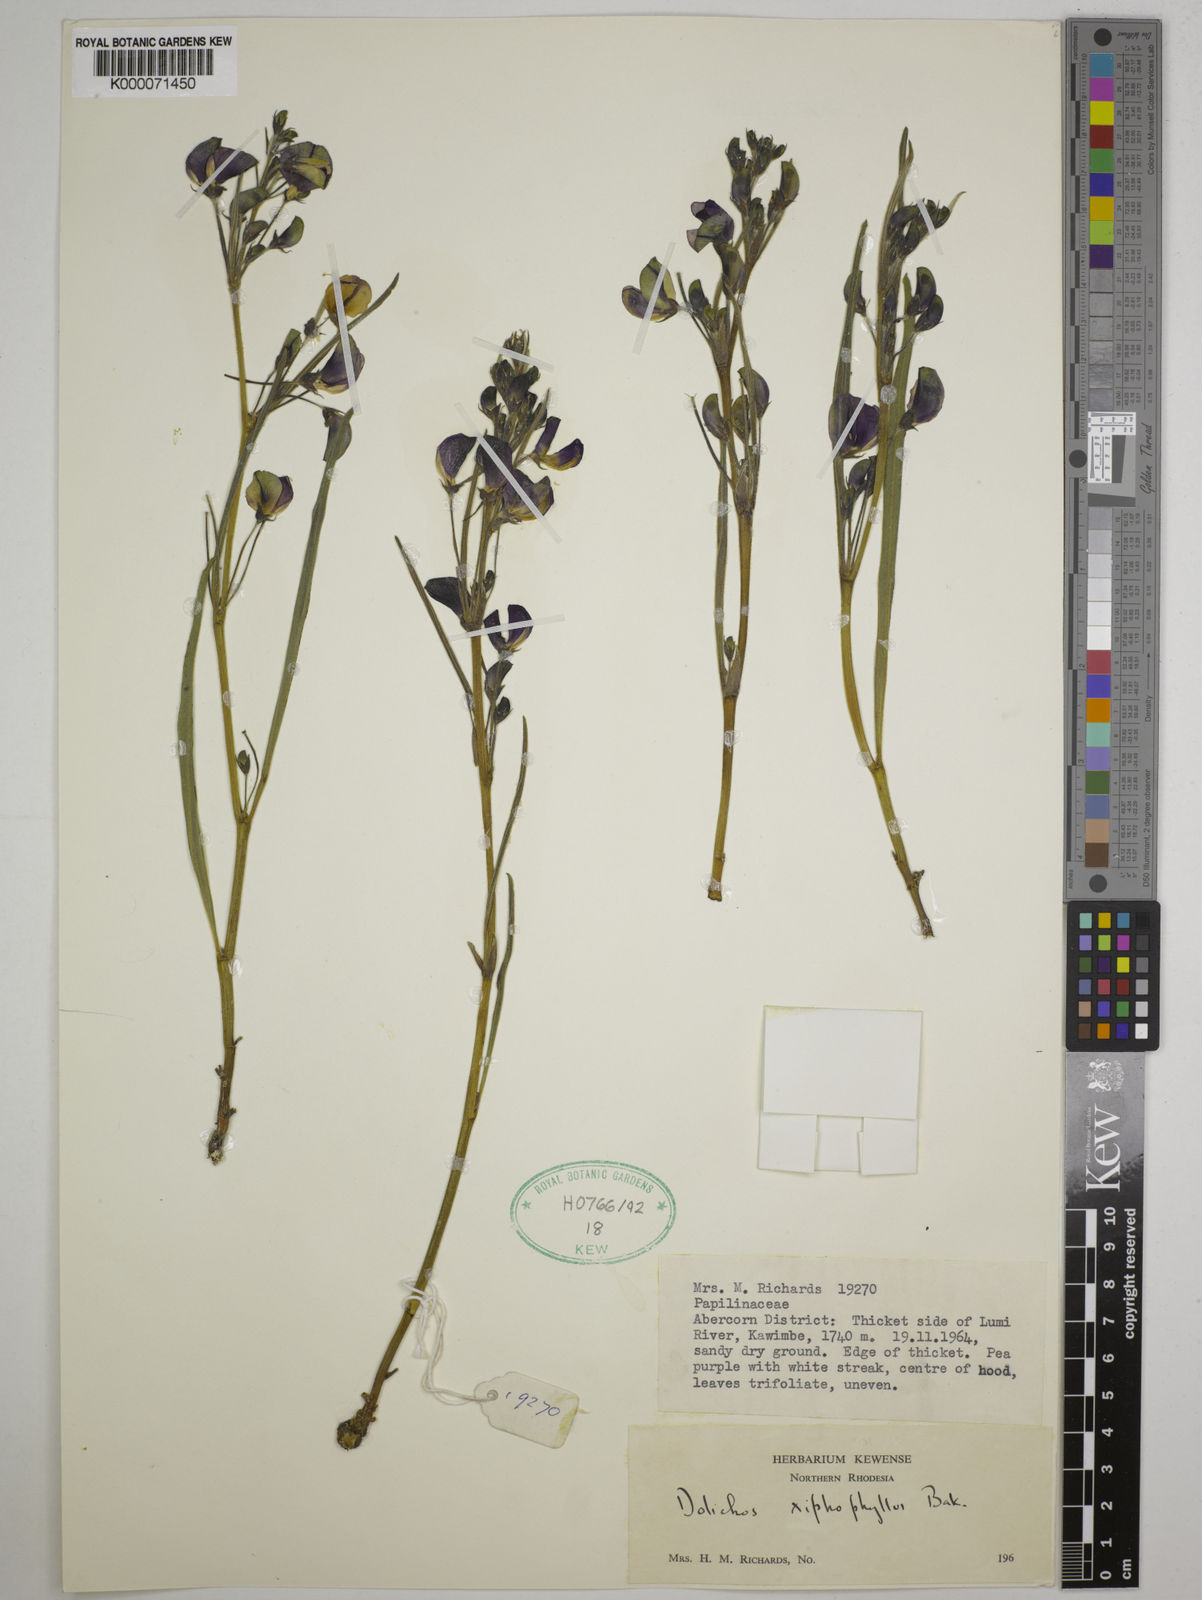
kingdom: Plantae
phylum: Tracheophyta
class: Magnoliopsida
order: Fabales
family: Fabaceae
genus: Dolichos
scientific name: Dolichos xiphophyllus
